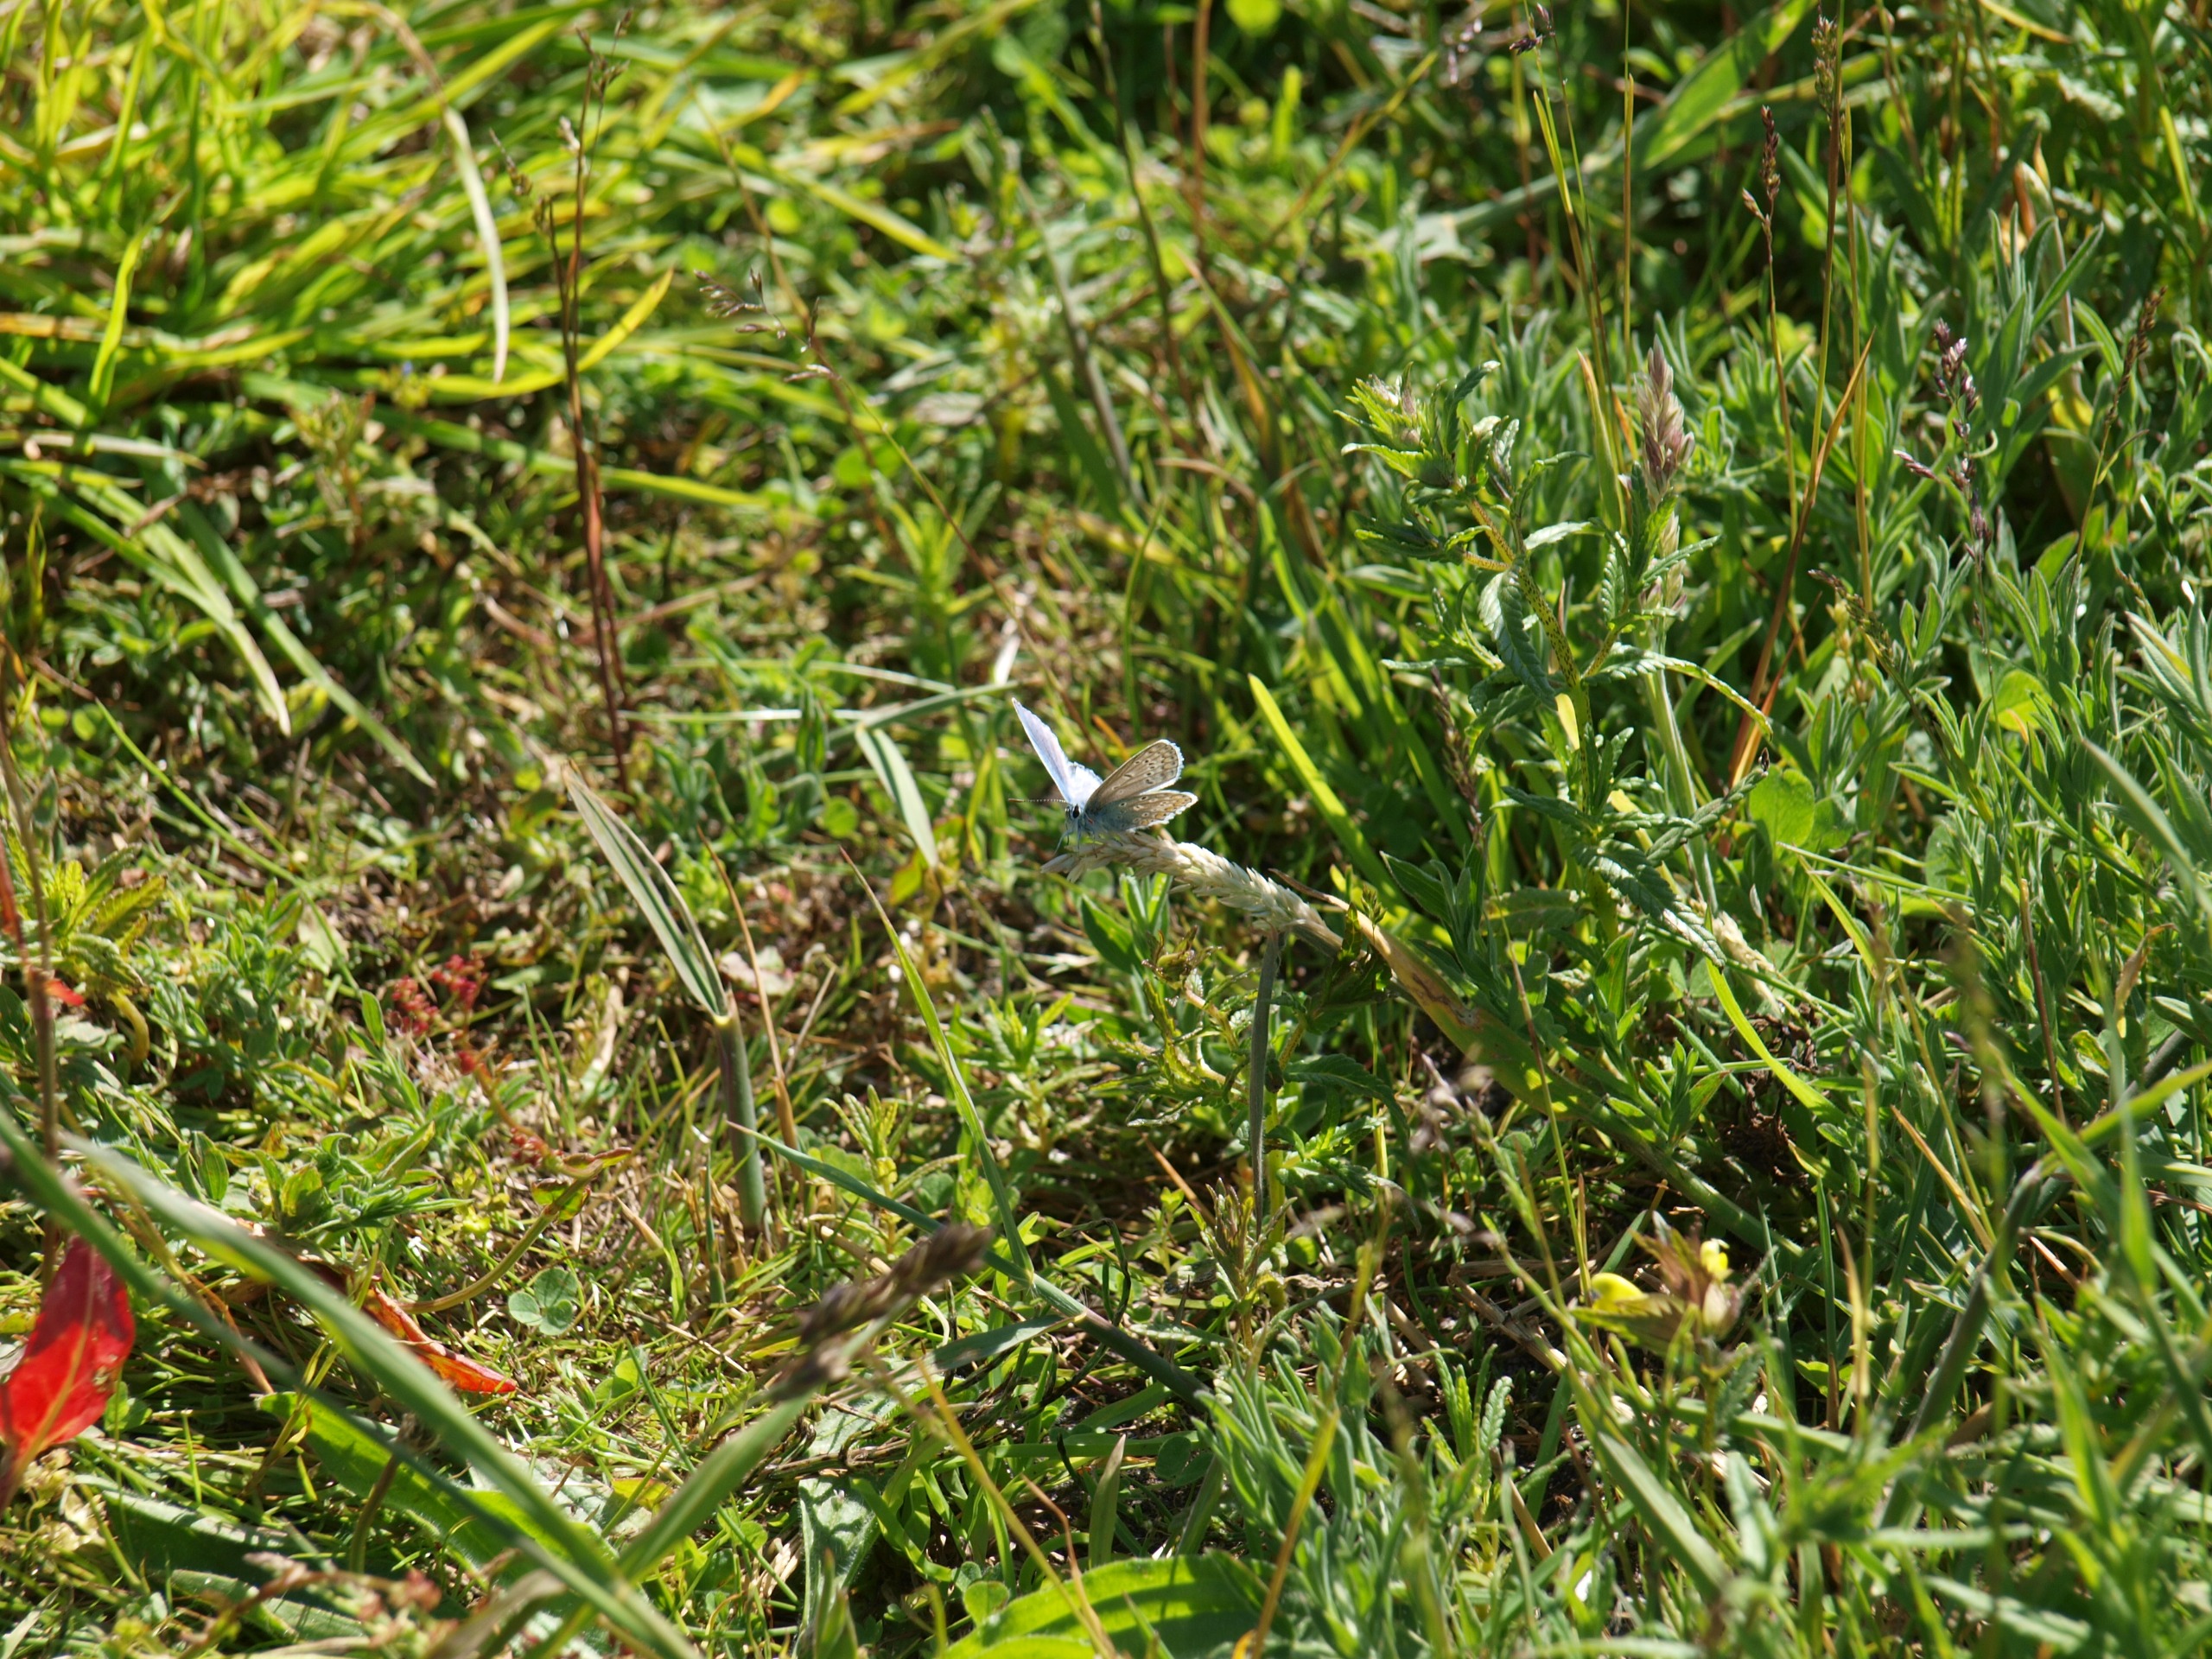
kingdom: Animalia
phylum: Arthropoda
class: Insecta
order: Lepidoptera
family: Lycaenidae
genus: Polyommatus
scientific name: Polyommatus icarus
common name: Almindelig blåfugl
